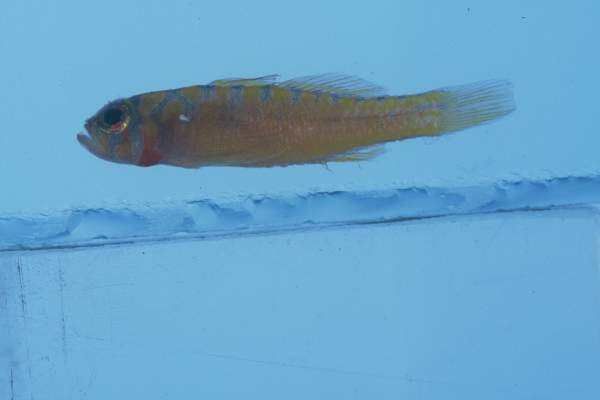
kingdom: Animalia
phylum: Chordata
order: Perciformes
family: Gobiidae
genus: Trimma
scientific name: Trimma mendelssohni
